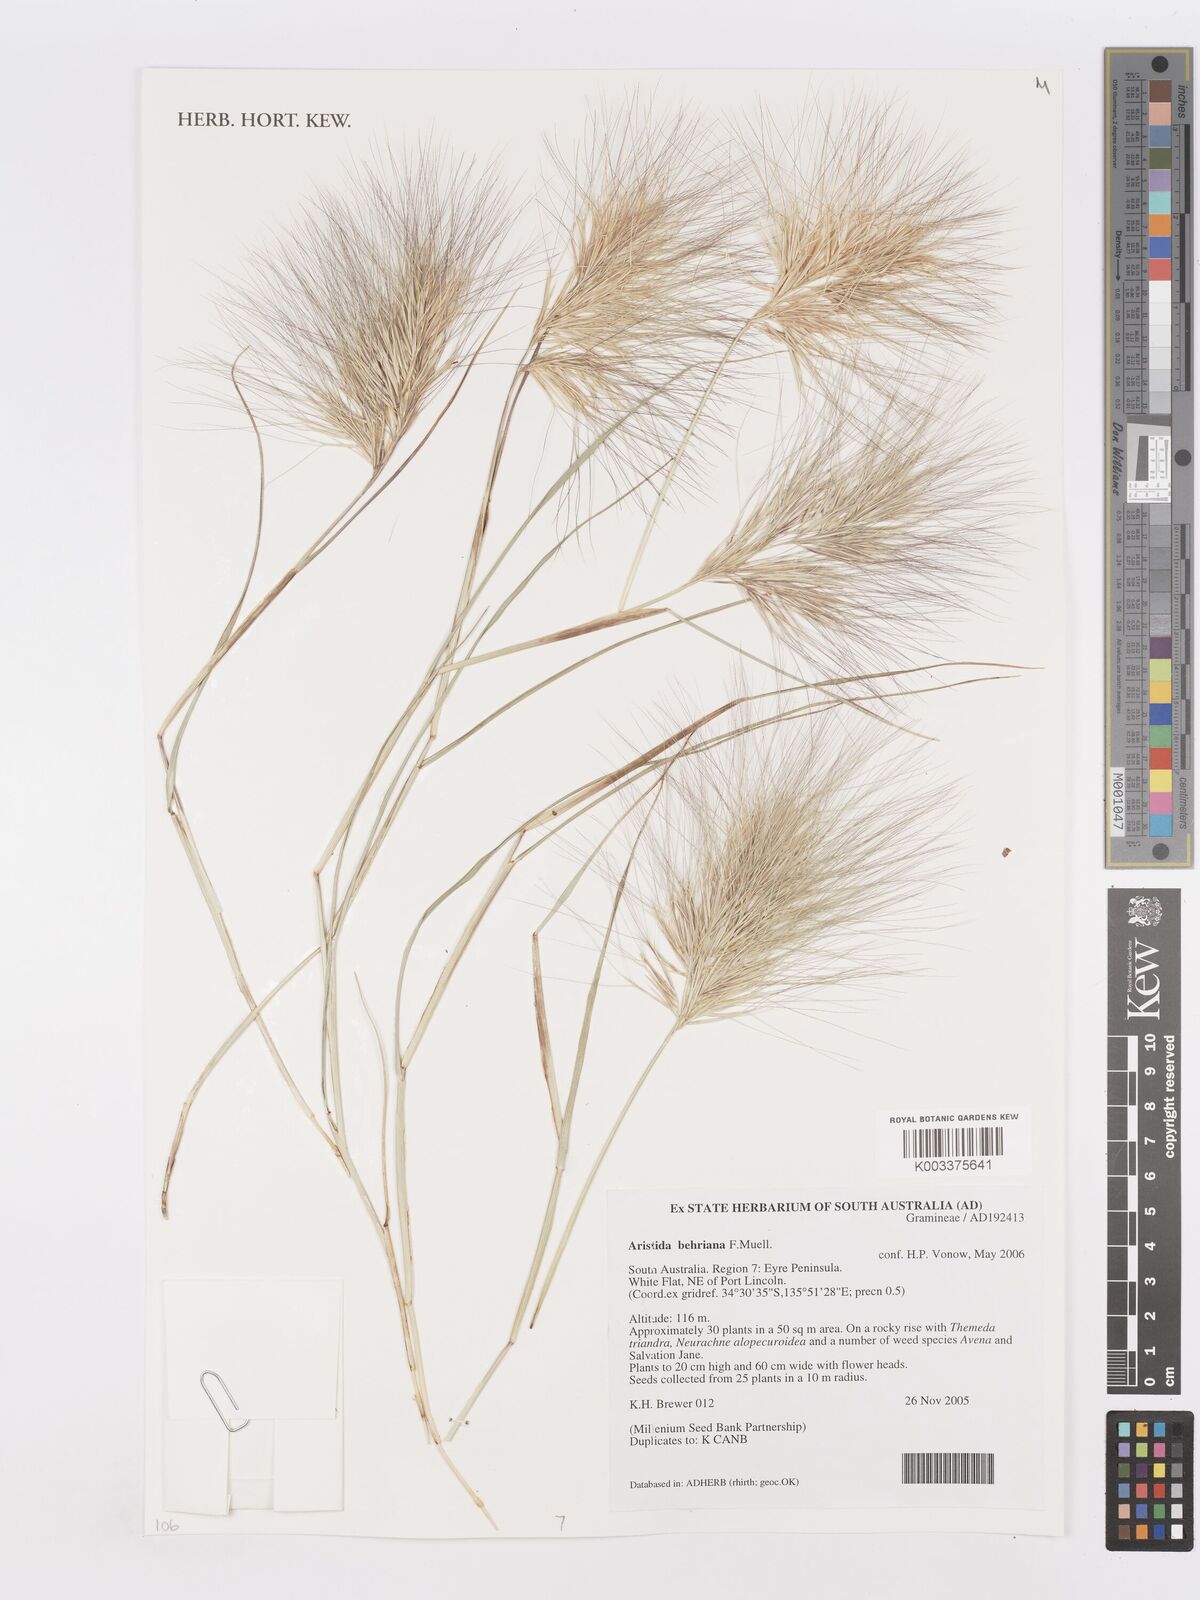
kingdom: Plantae
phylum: Tracheophyta
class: Liliopsida
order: Poales
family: Poaceae
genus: Aristida
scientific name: Aristida behriana
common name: Long-awn wire grass
